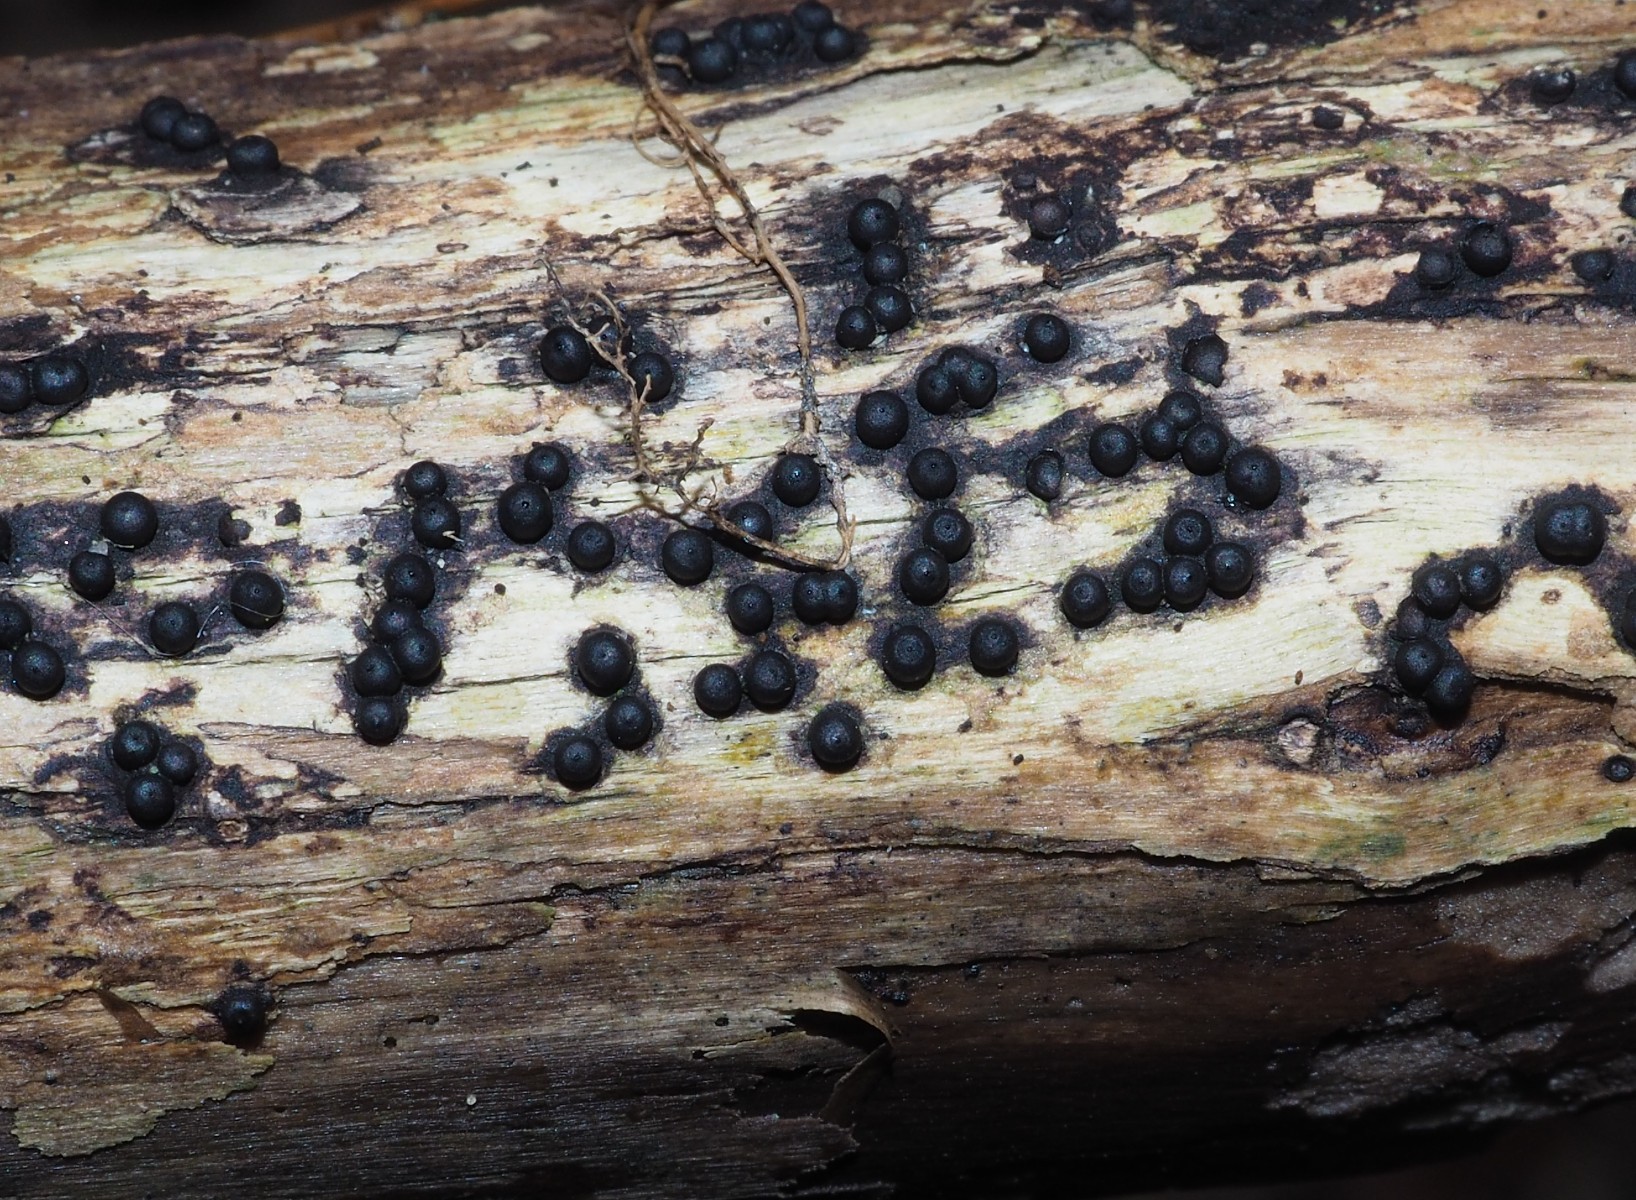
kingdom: Fungi
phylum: Ascomycota
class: Sordariomycetes
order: Xylariales
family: Xylariaceae
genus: Rosellinia
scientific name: Rosellinia
